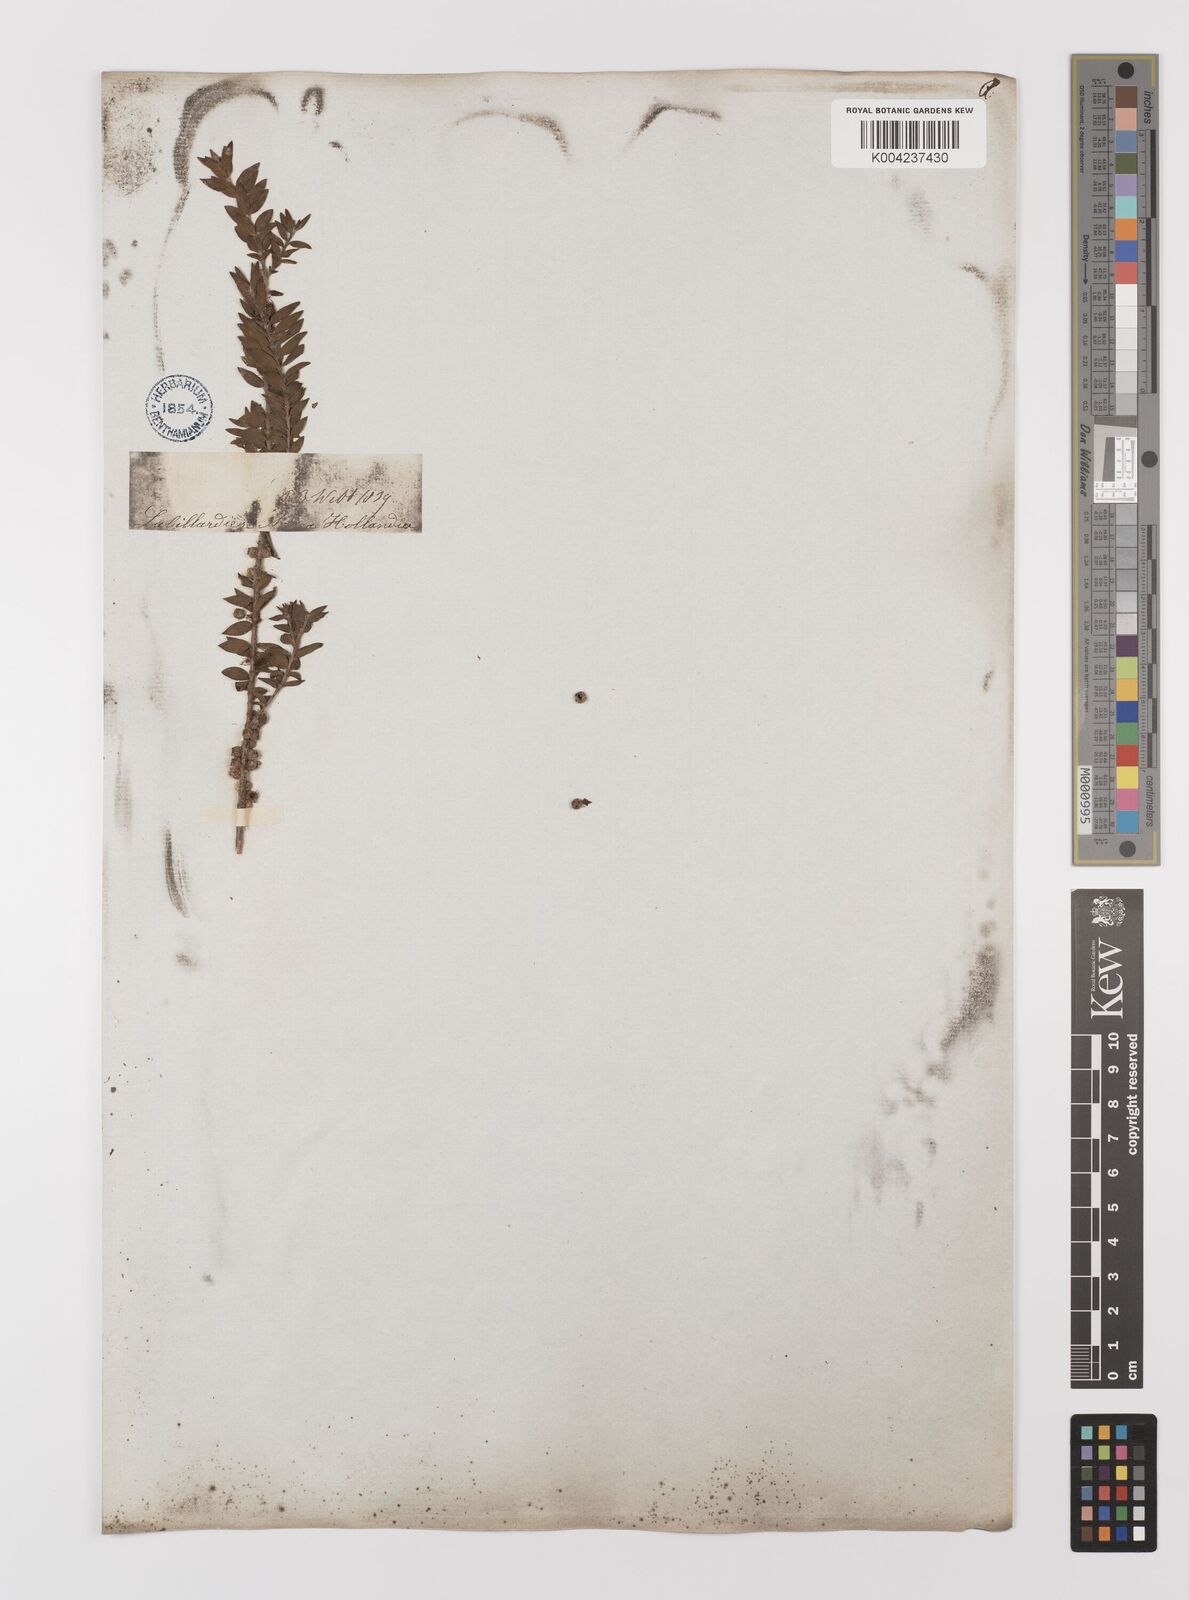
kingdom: Plantae
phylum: Tracheophyta
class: Magnoliopsida
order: Myrtales
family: Myrtaceae
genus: Melaleuca
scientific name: Melaleuca
